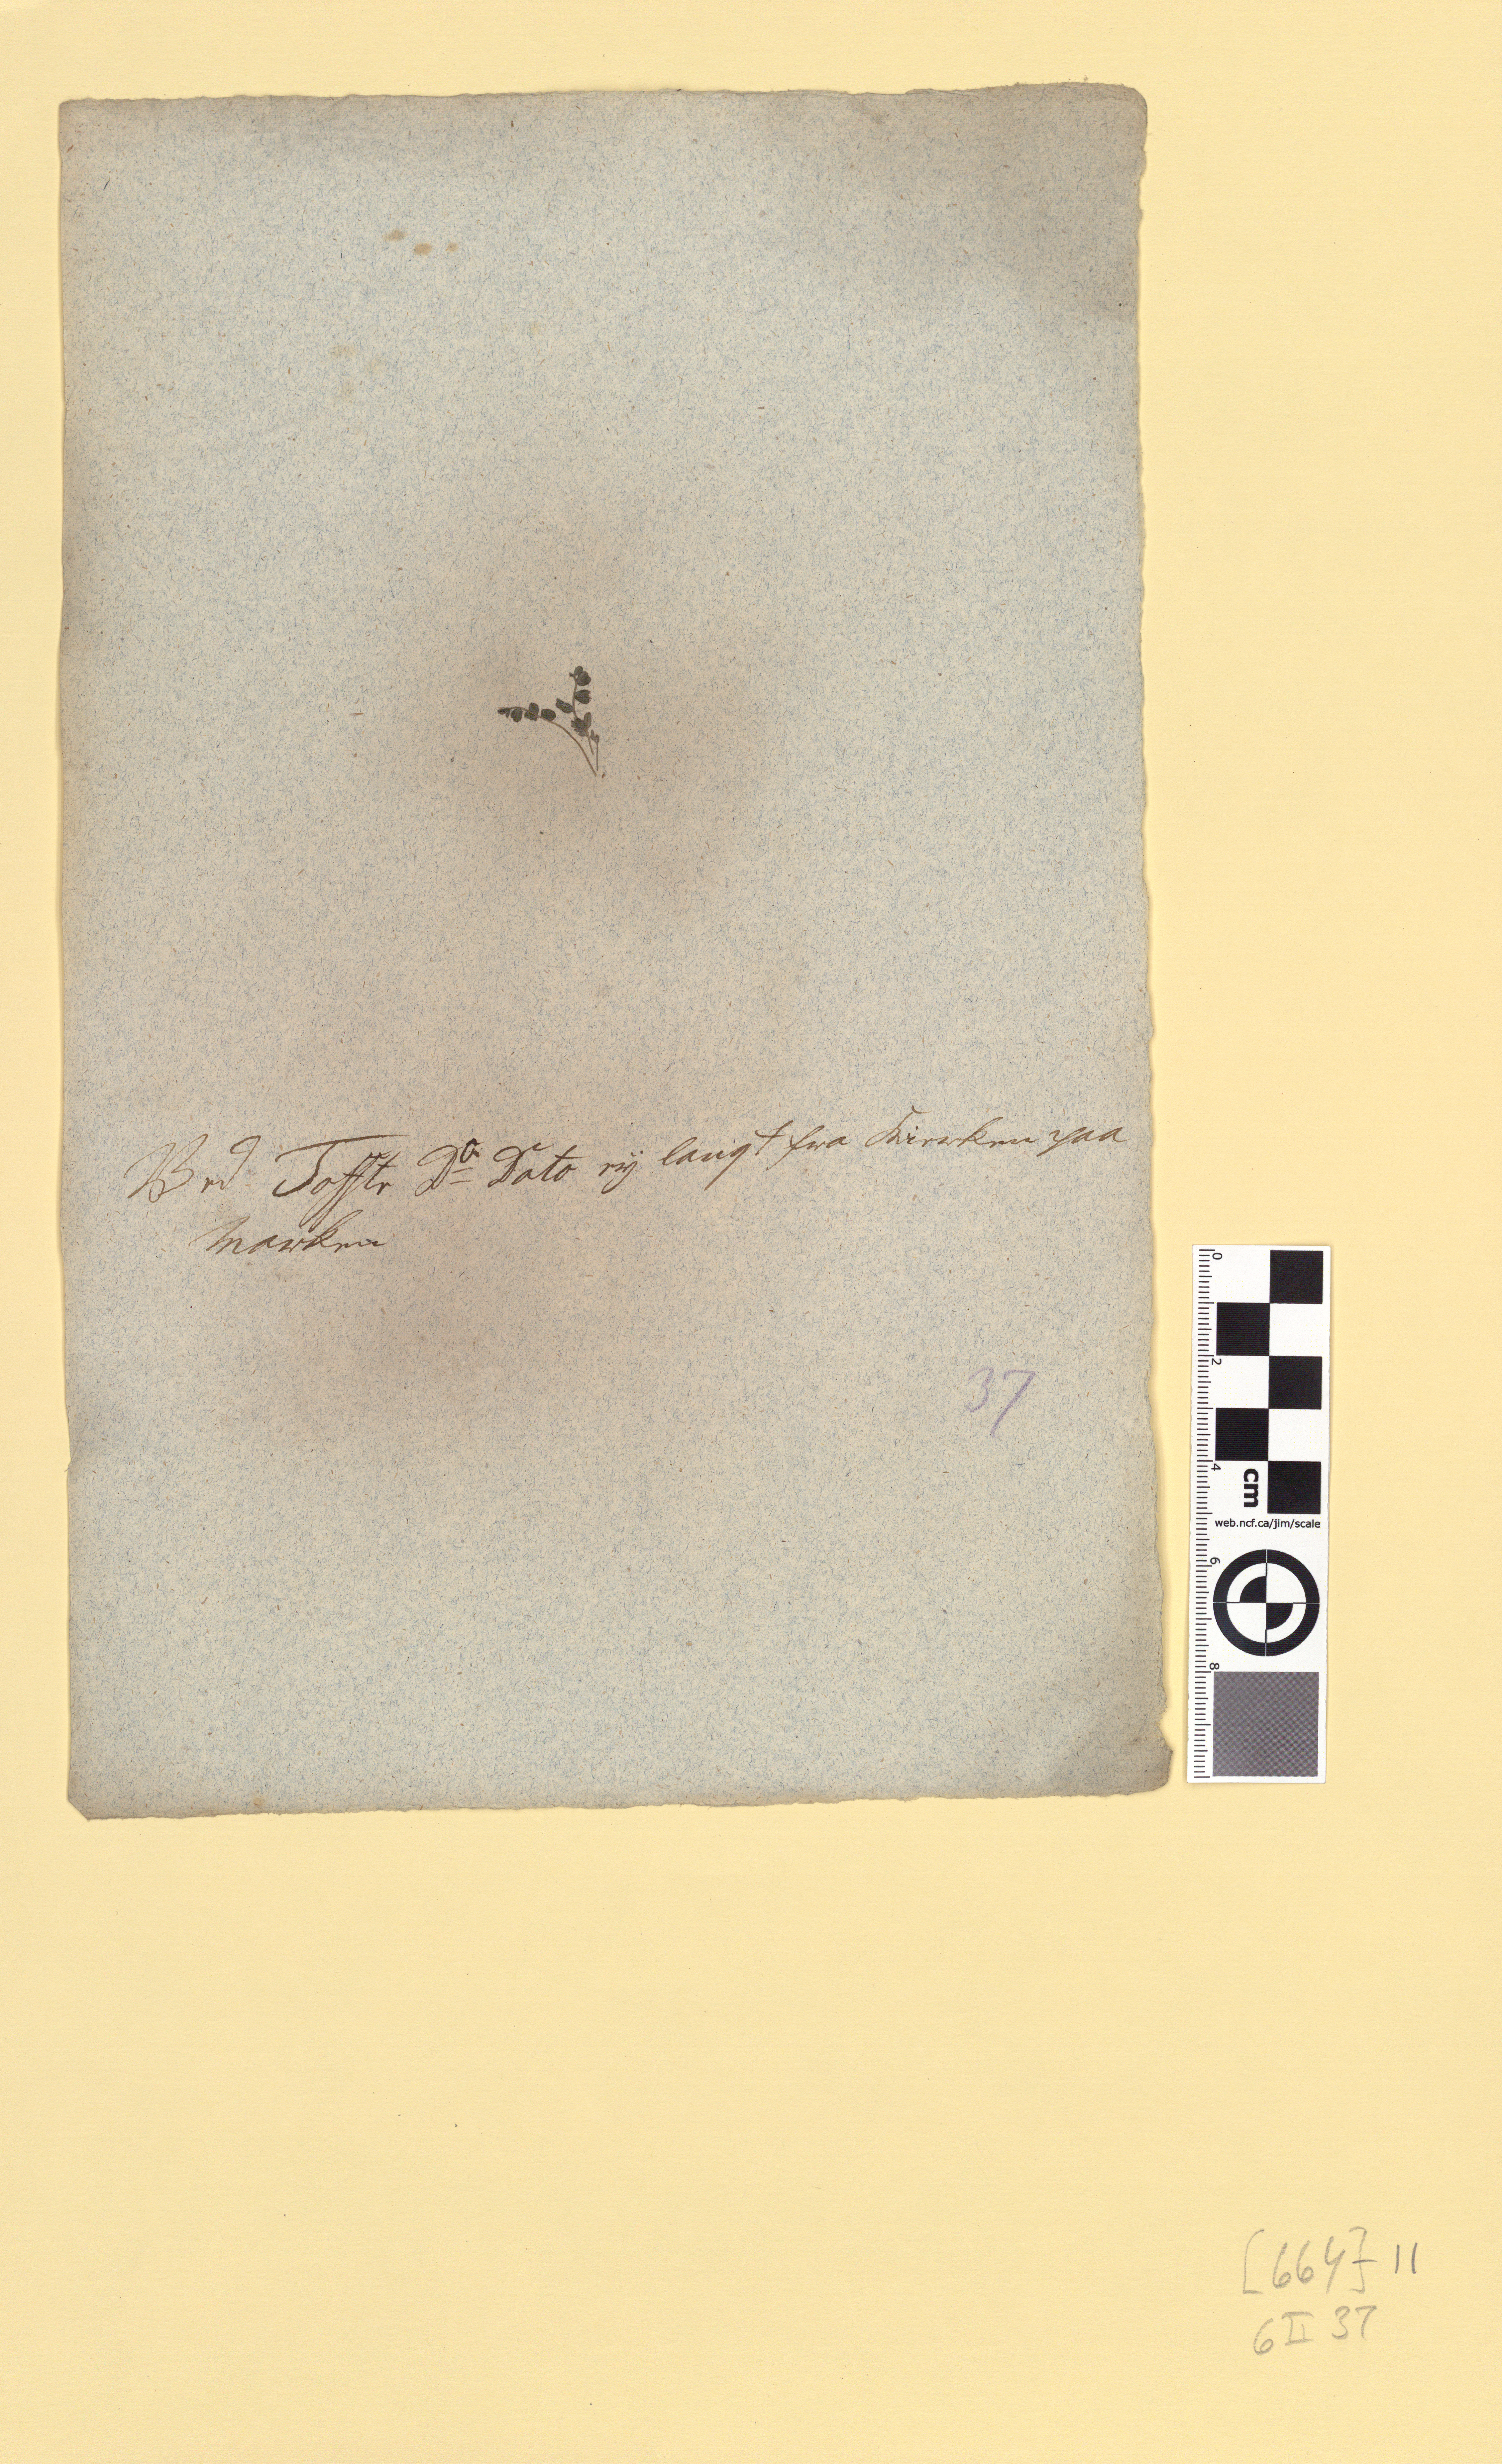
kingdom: Plantae
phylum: Tracheophyta
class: Magnoliopsida
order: Fabales
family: Fabaceae
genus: Astragalus
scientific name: Astragalus alpinus
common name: Alpine milk-vetch
